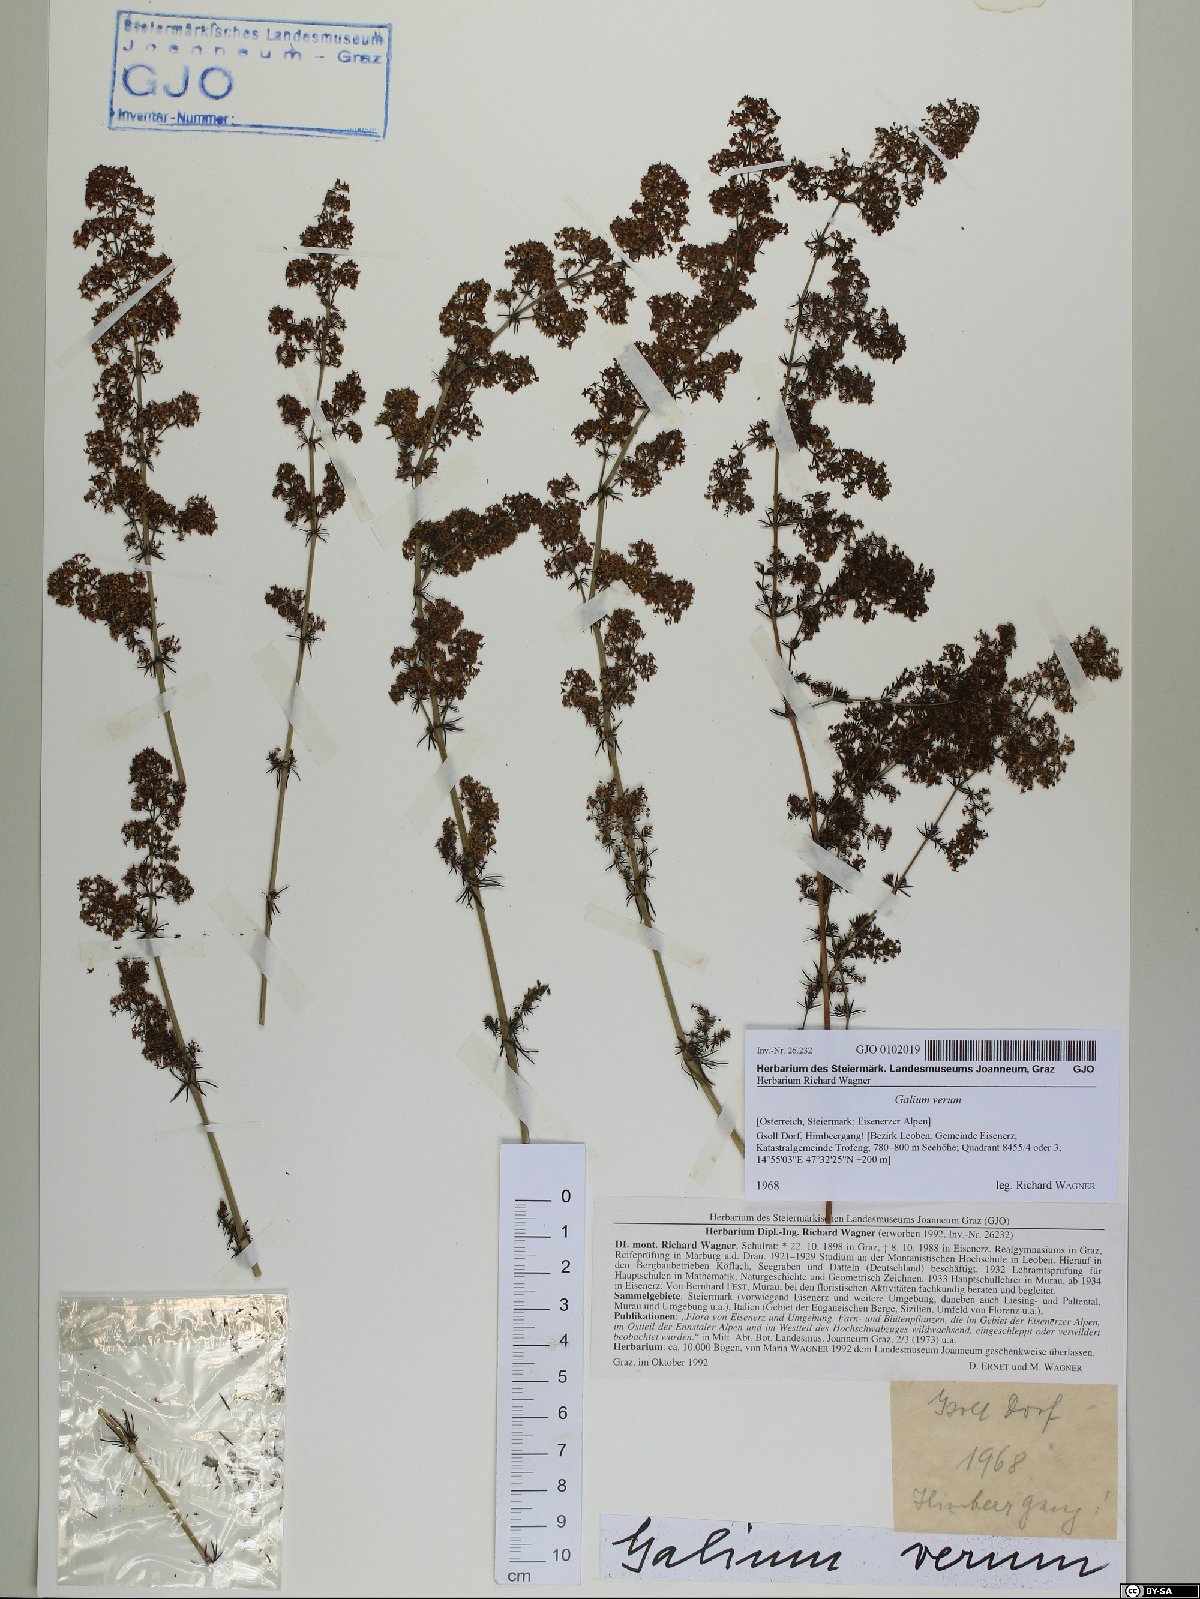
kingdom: Plantae
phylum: Tracheophyta
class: Magnoliopsida
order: Gentianales
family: Rubiaceae
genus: Galium
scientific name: Galium verum
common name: Lady's bedstraw
